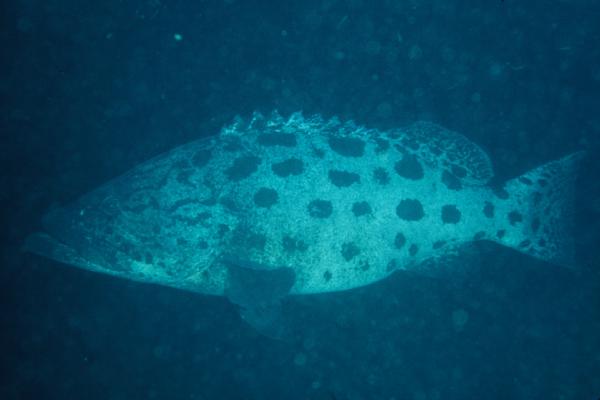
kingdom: Animalia
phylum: Chordata
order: Perciformes
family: Serranidae
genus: Epinephelus
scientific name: Epinephelus tukula
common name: Potato cod
